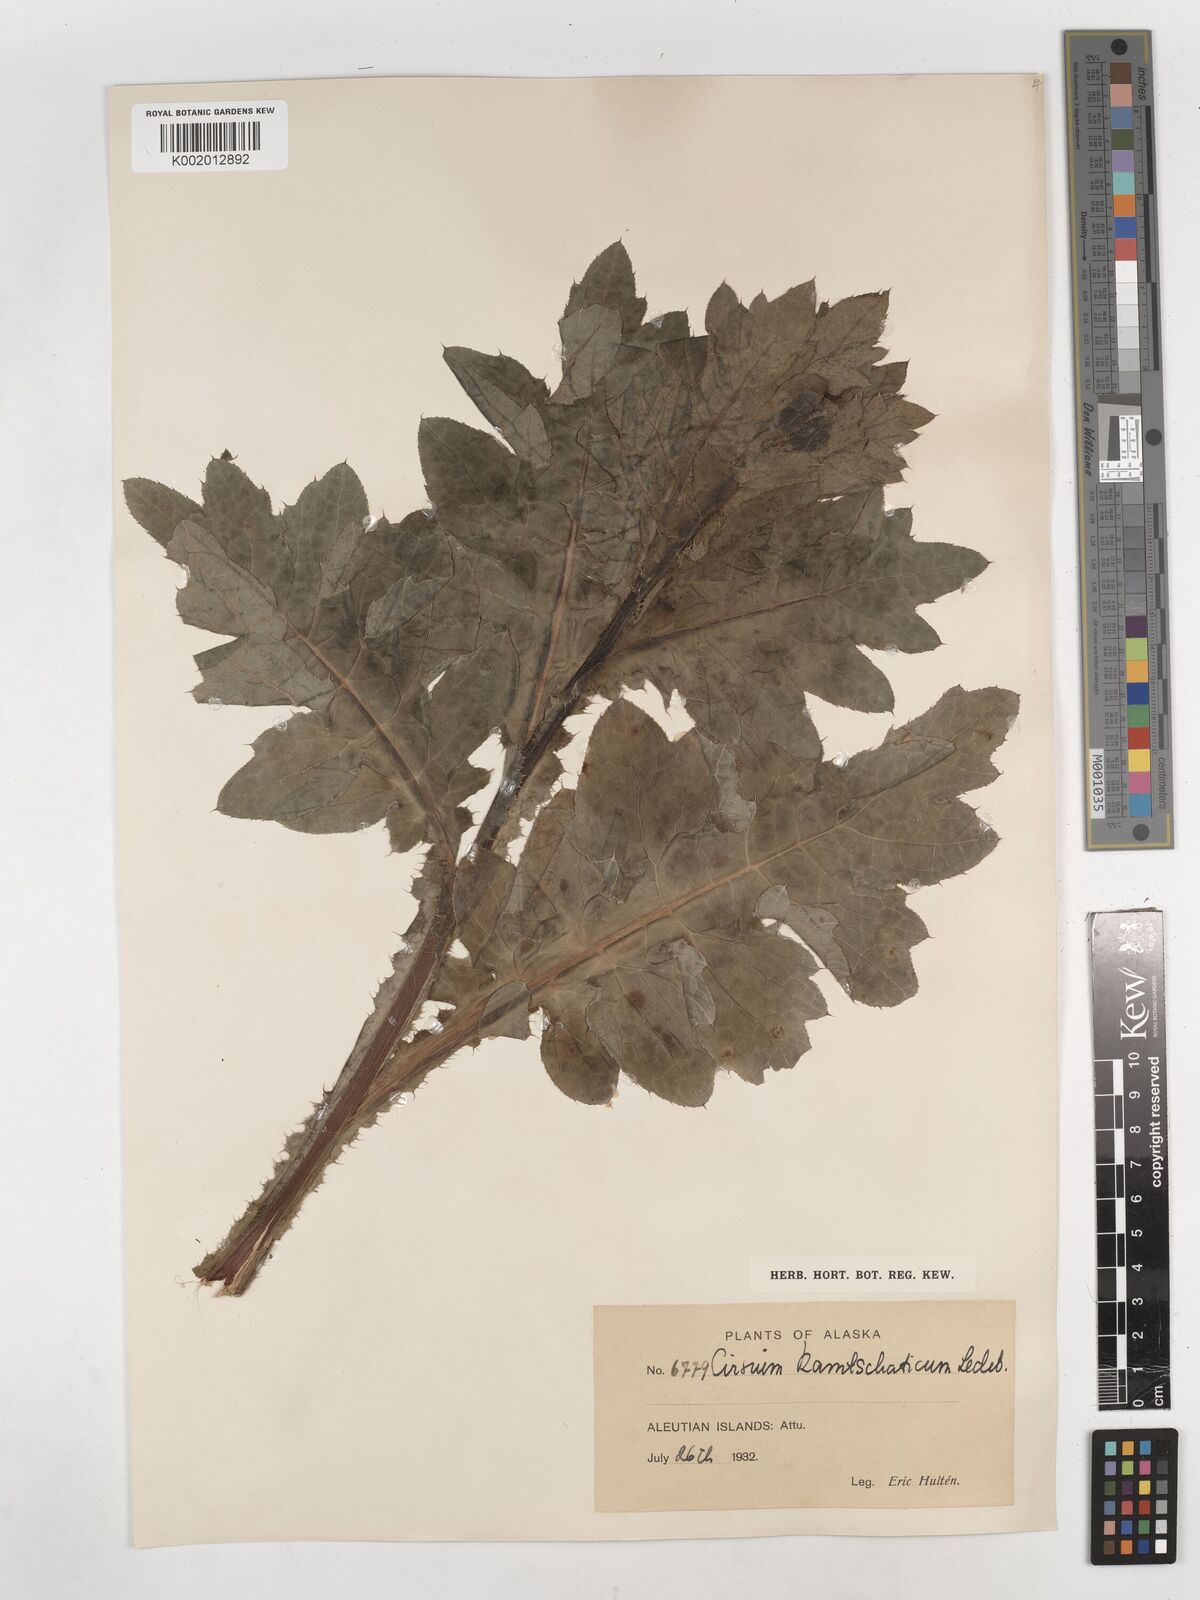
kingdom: Plantae
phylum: Tracheophyta
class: Magnoliopsida
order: Asterales
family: Asteraceae
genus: Cirsium
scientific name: Cirsium kamtschaticum
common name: Kamchatka thistle
